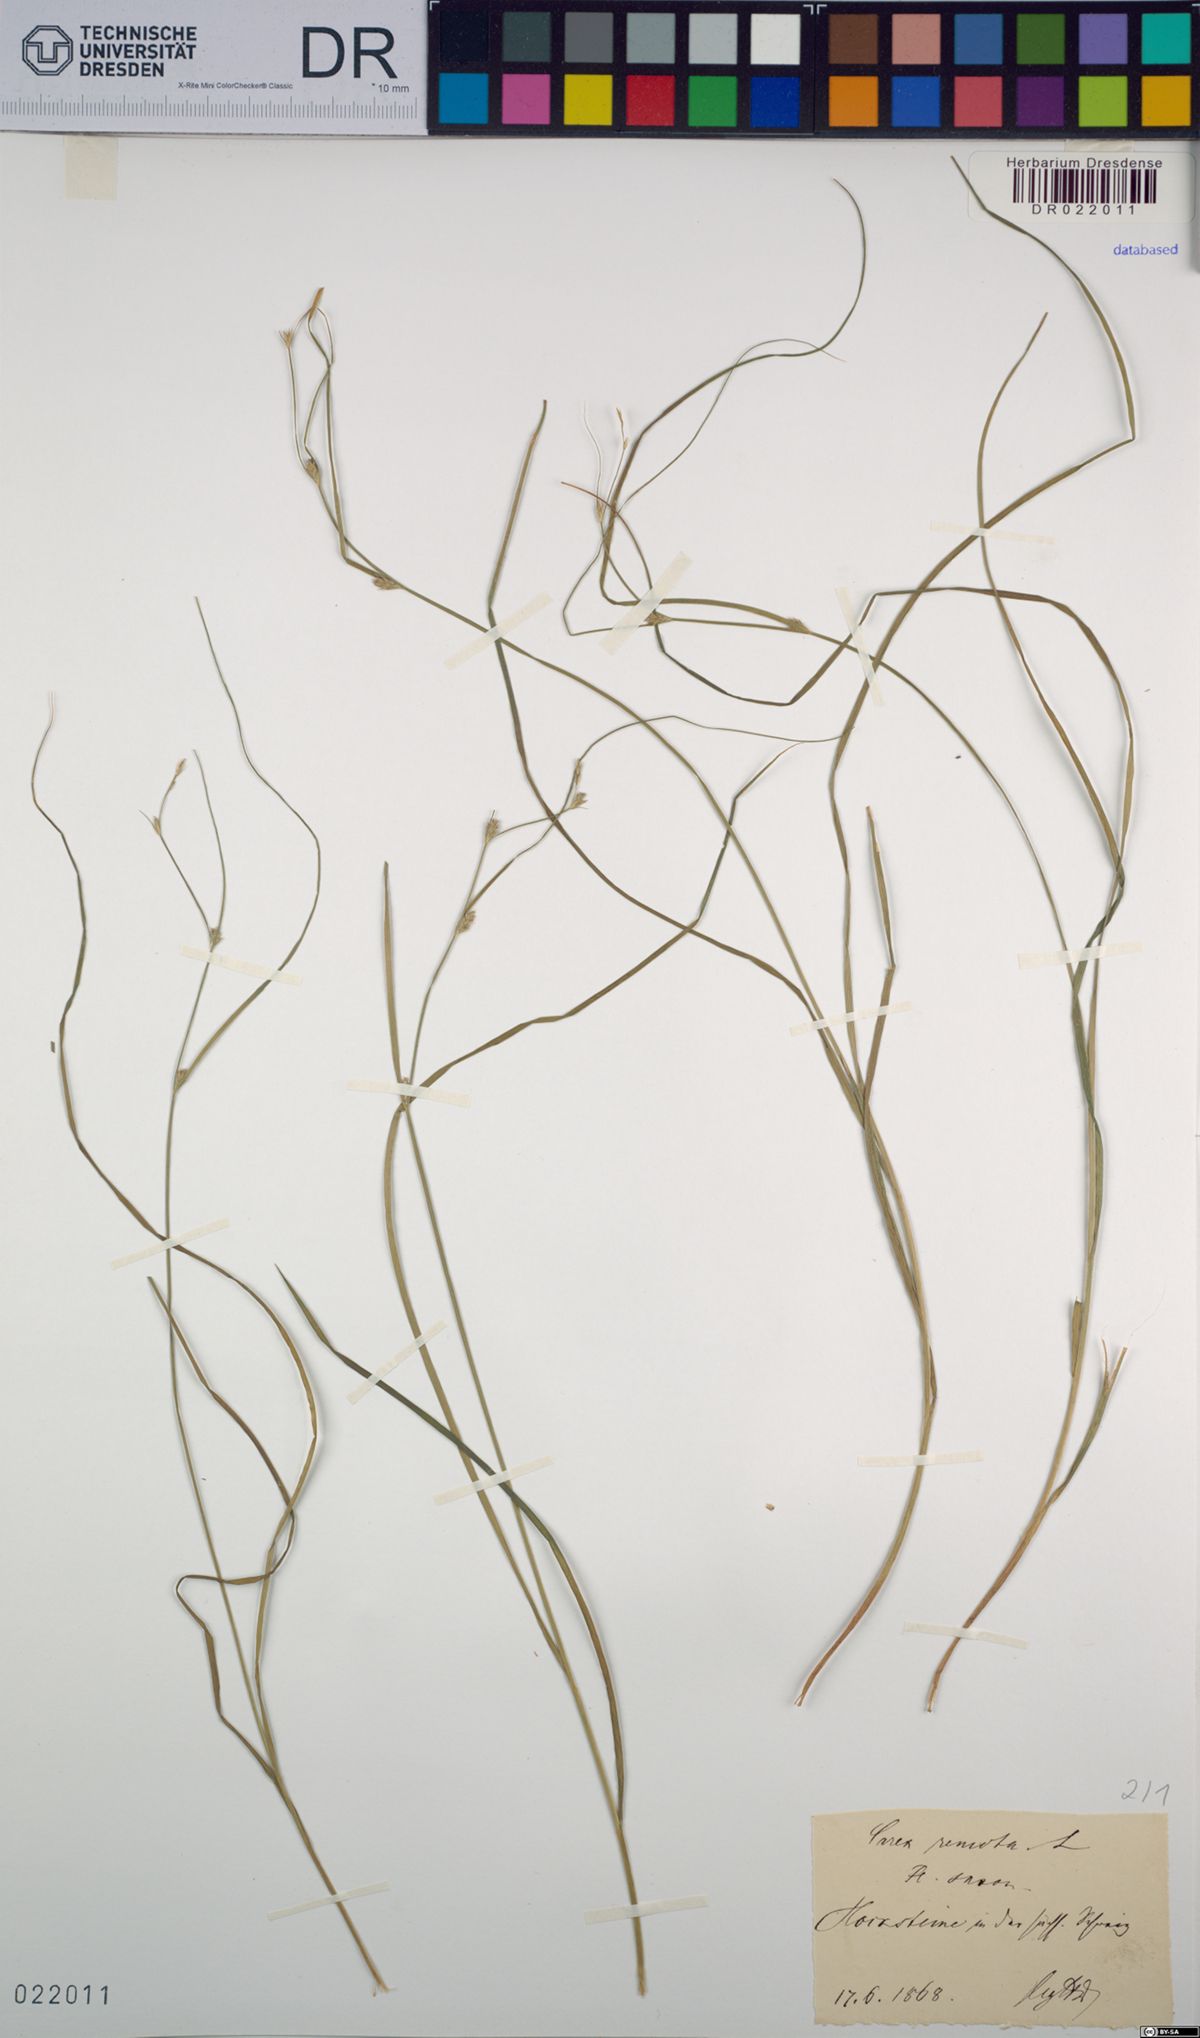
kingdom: Plantae
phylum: Tracheophyta
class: Liliopsida
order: Poales
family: Cyperaceae
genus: Carex
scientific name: Carex remota
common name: Remote sedge
